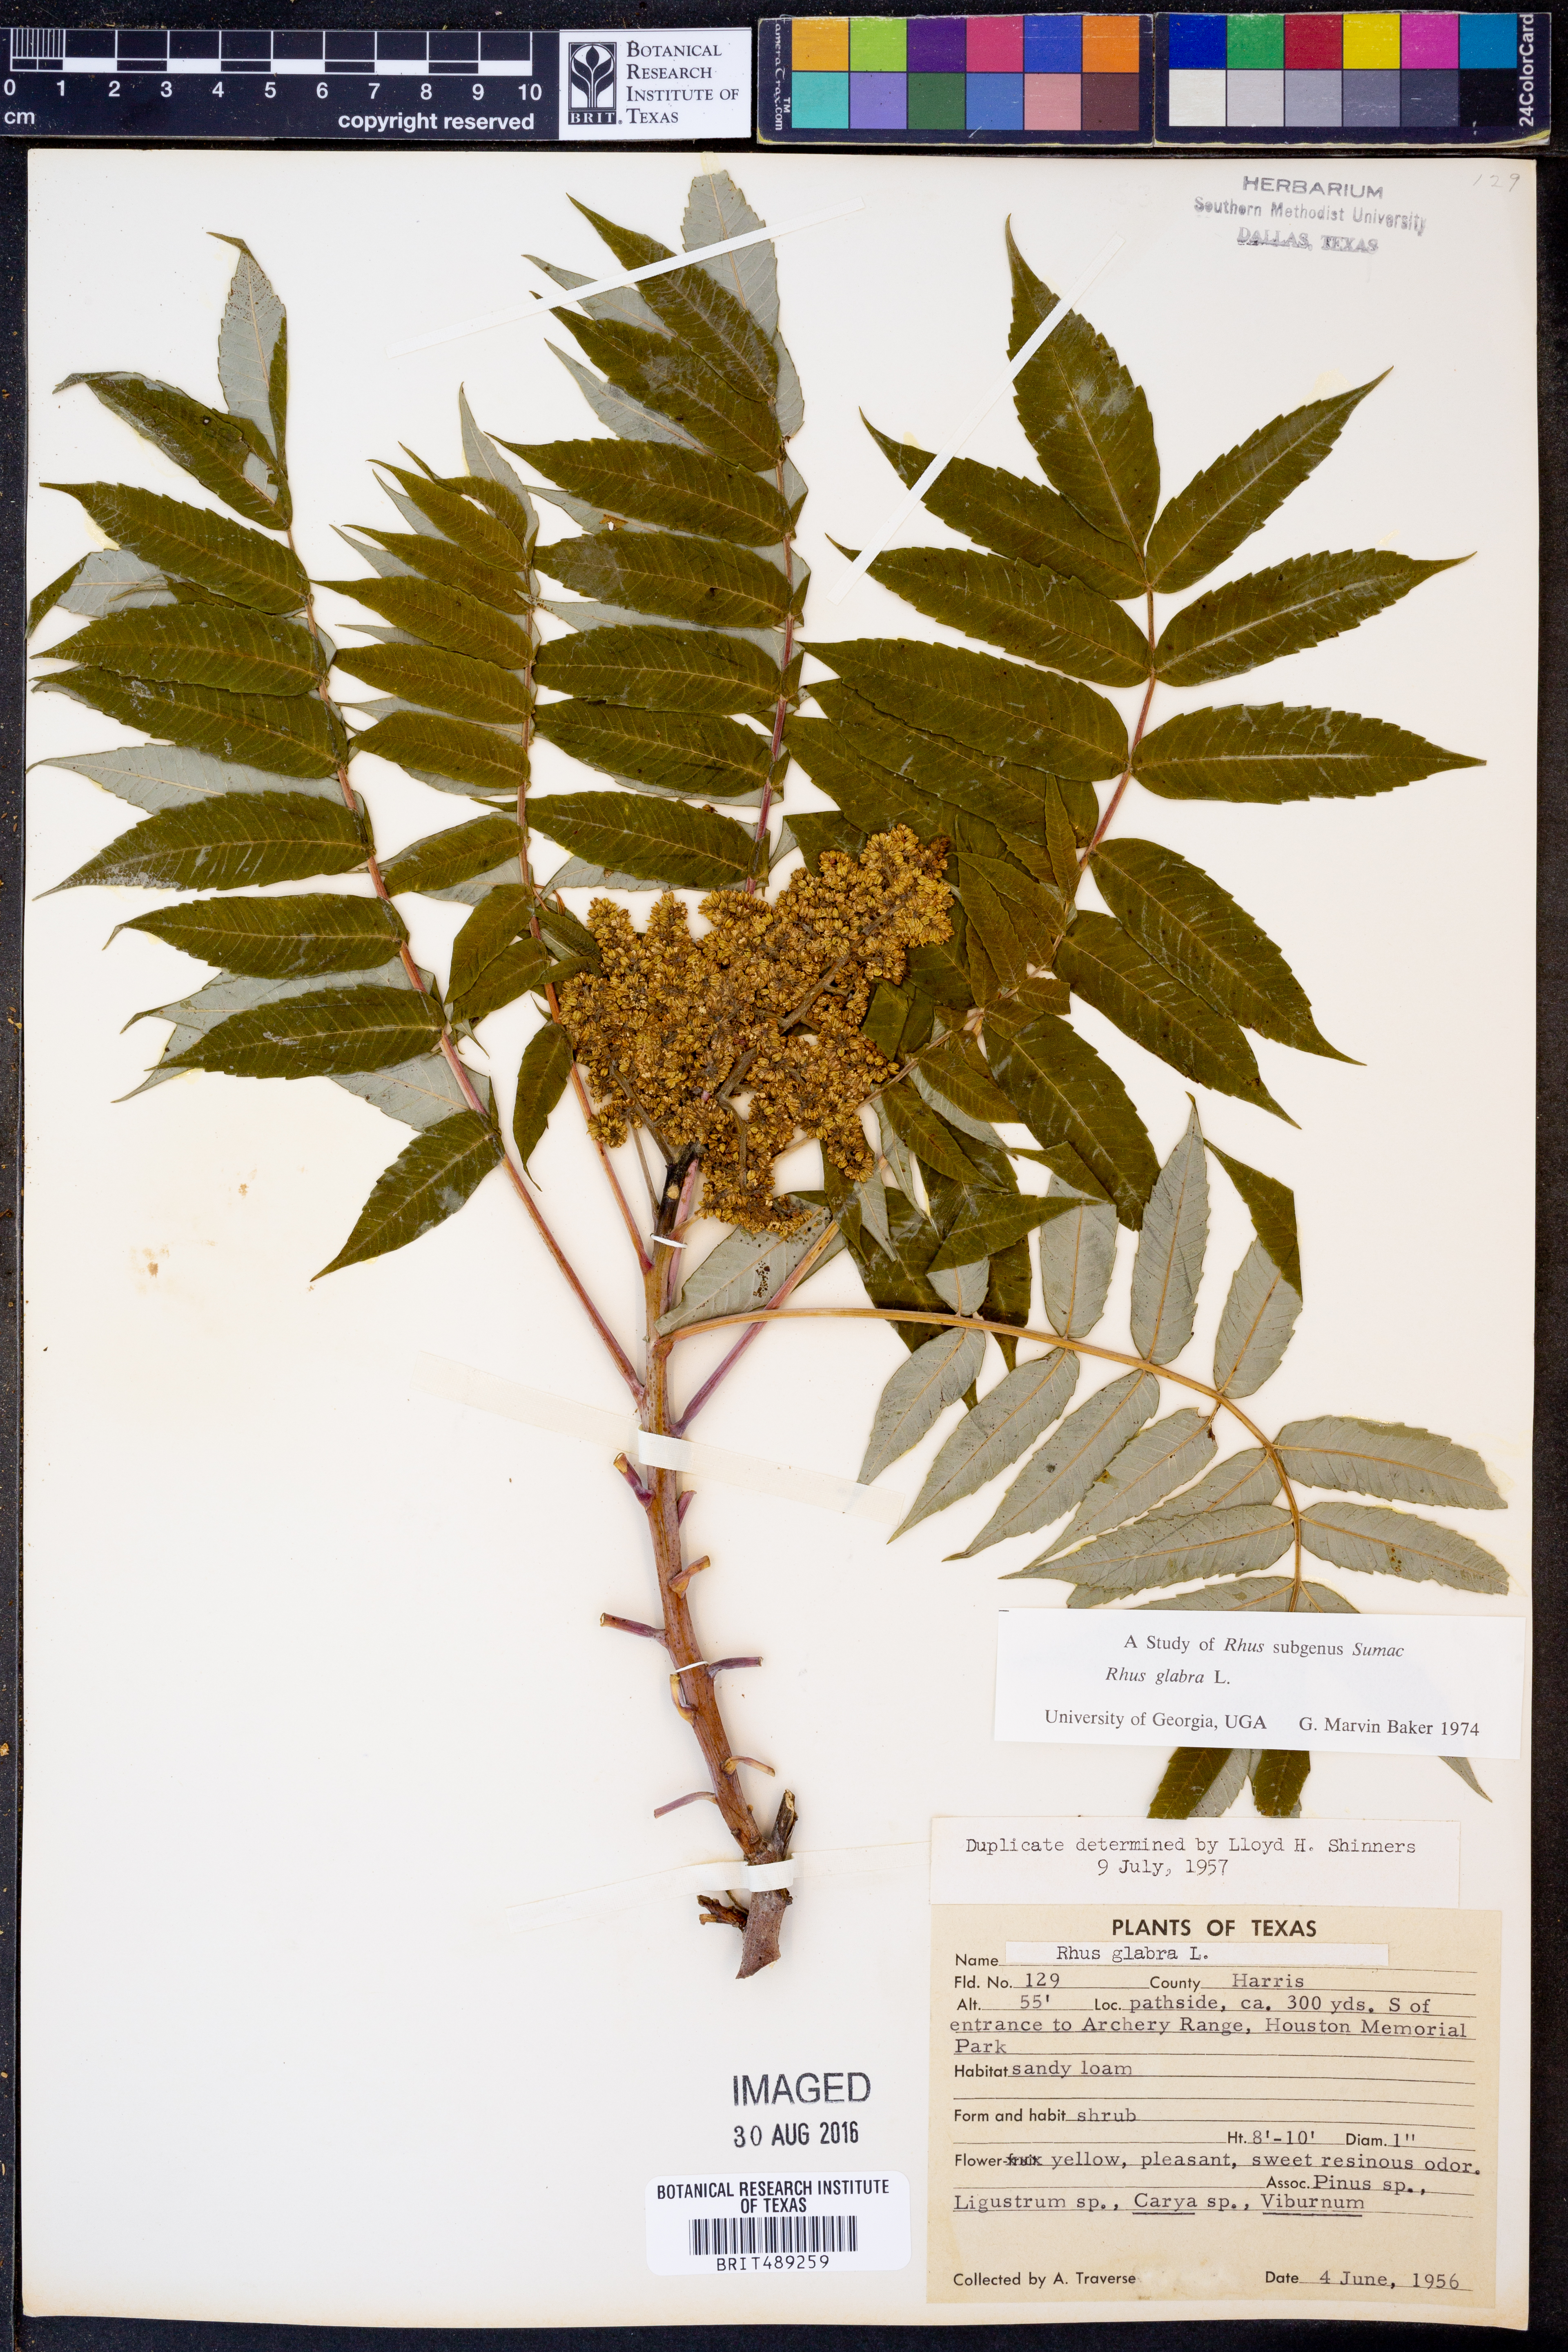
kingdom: Plantae
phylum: Tracheophyta
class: Magnoliopsida
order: Sapindales
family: Anacardiaceae
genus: Rhus
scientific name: Rhus glabra
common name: Scarlet sumac
